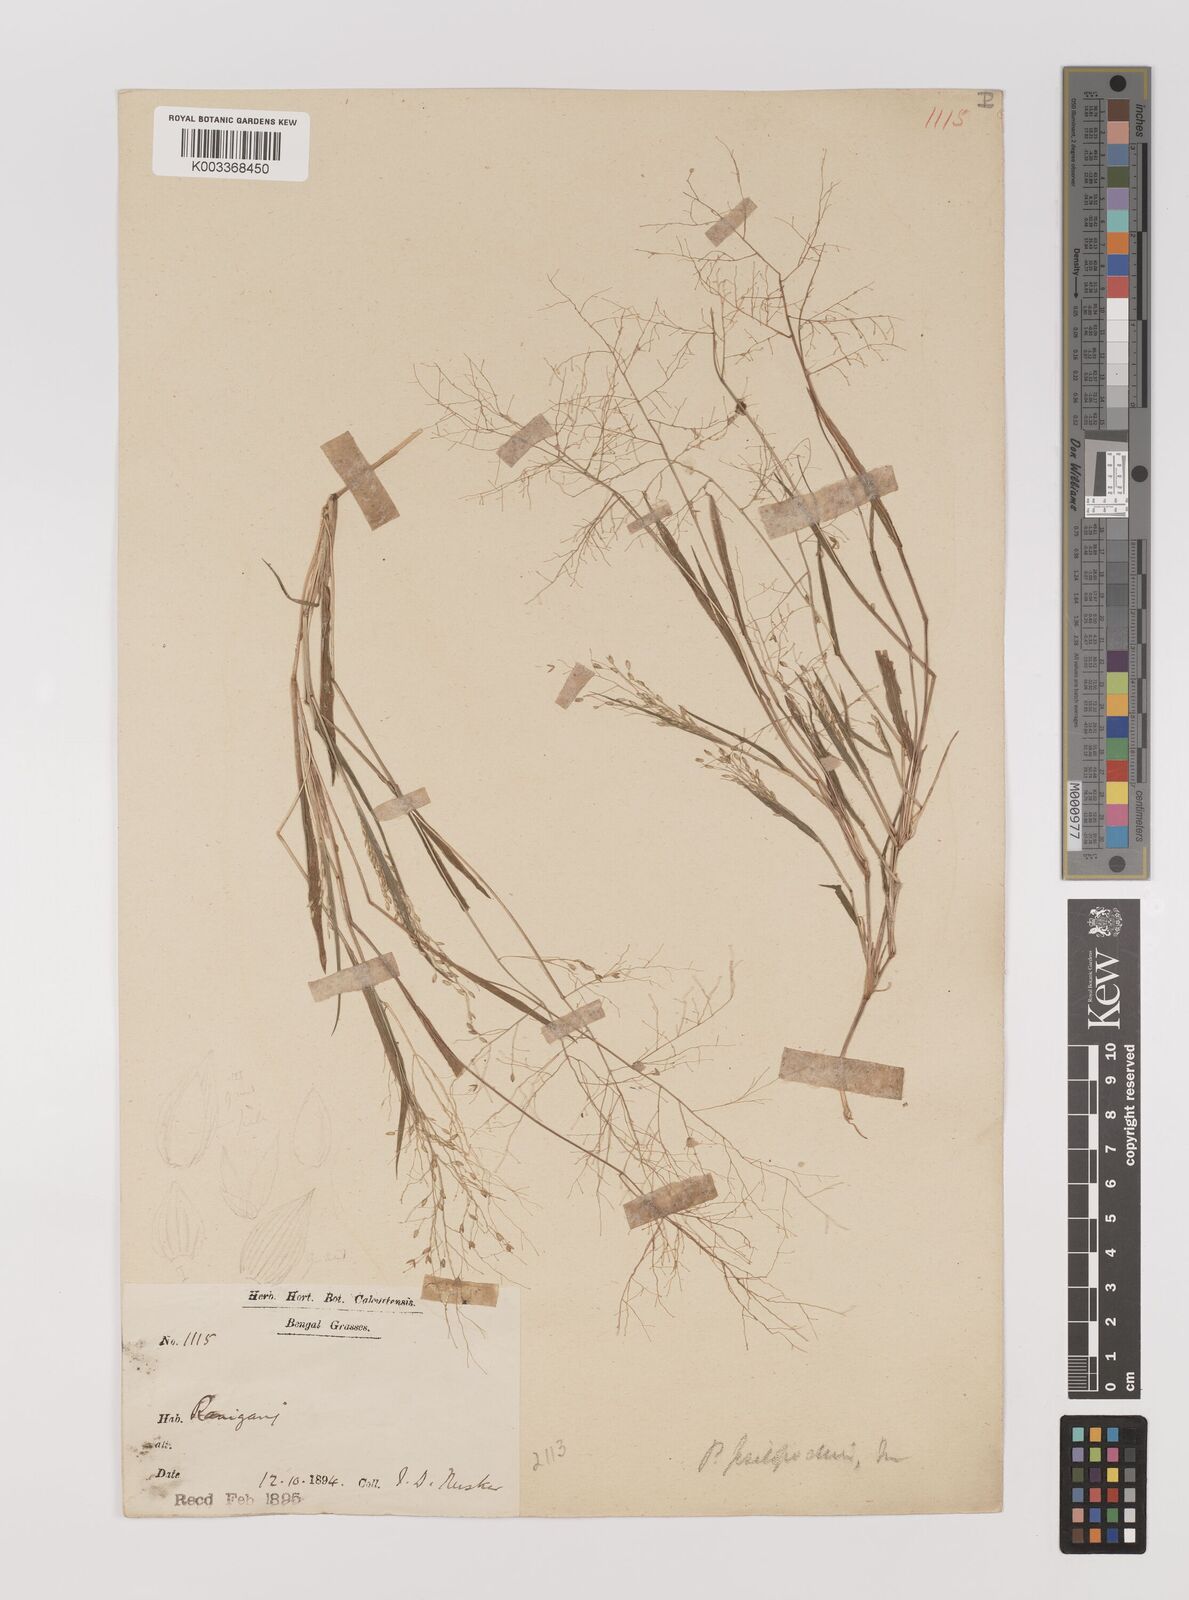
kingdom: Plantae
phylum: Tracheophyta
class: Liliopsida
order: Poales
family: Poaceae
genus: Panicum
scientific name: Panicum sumatrense
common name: Little millet
